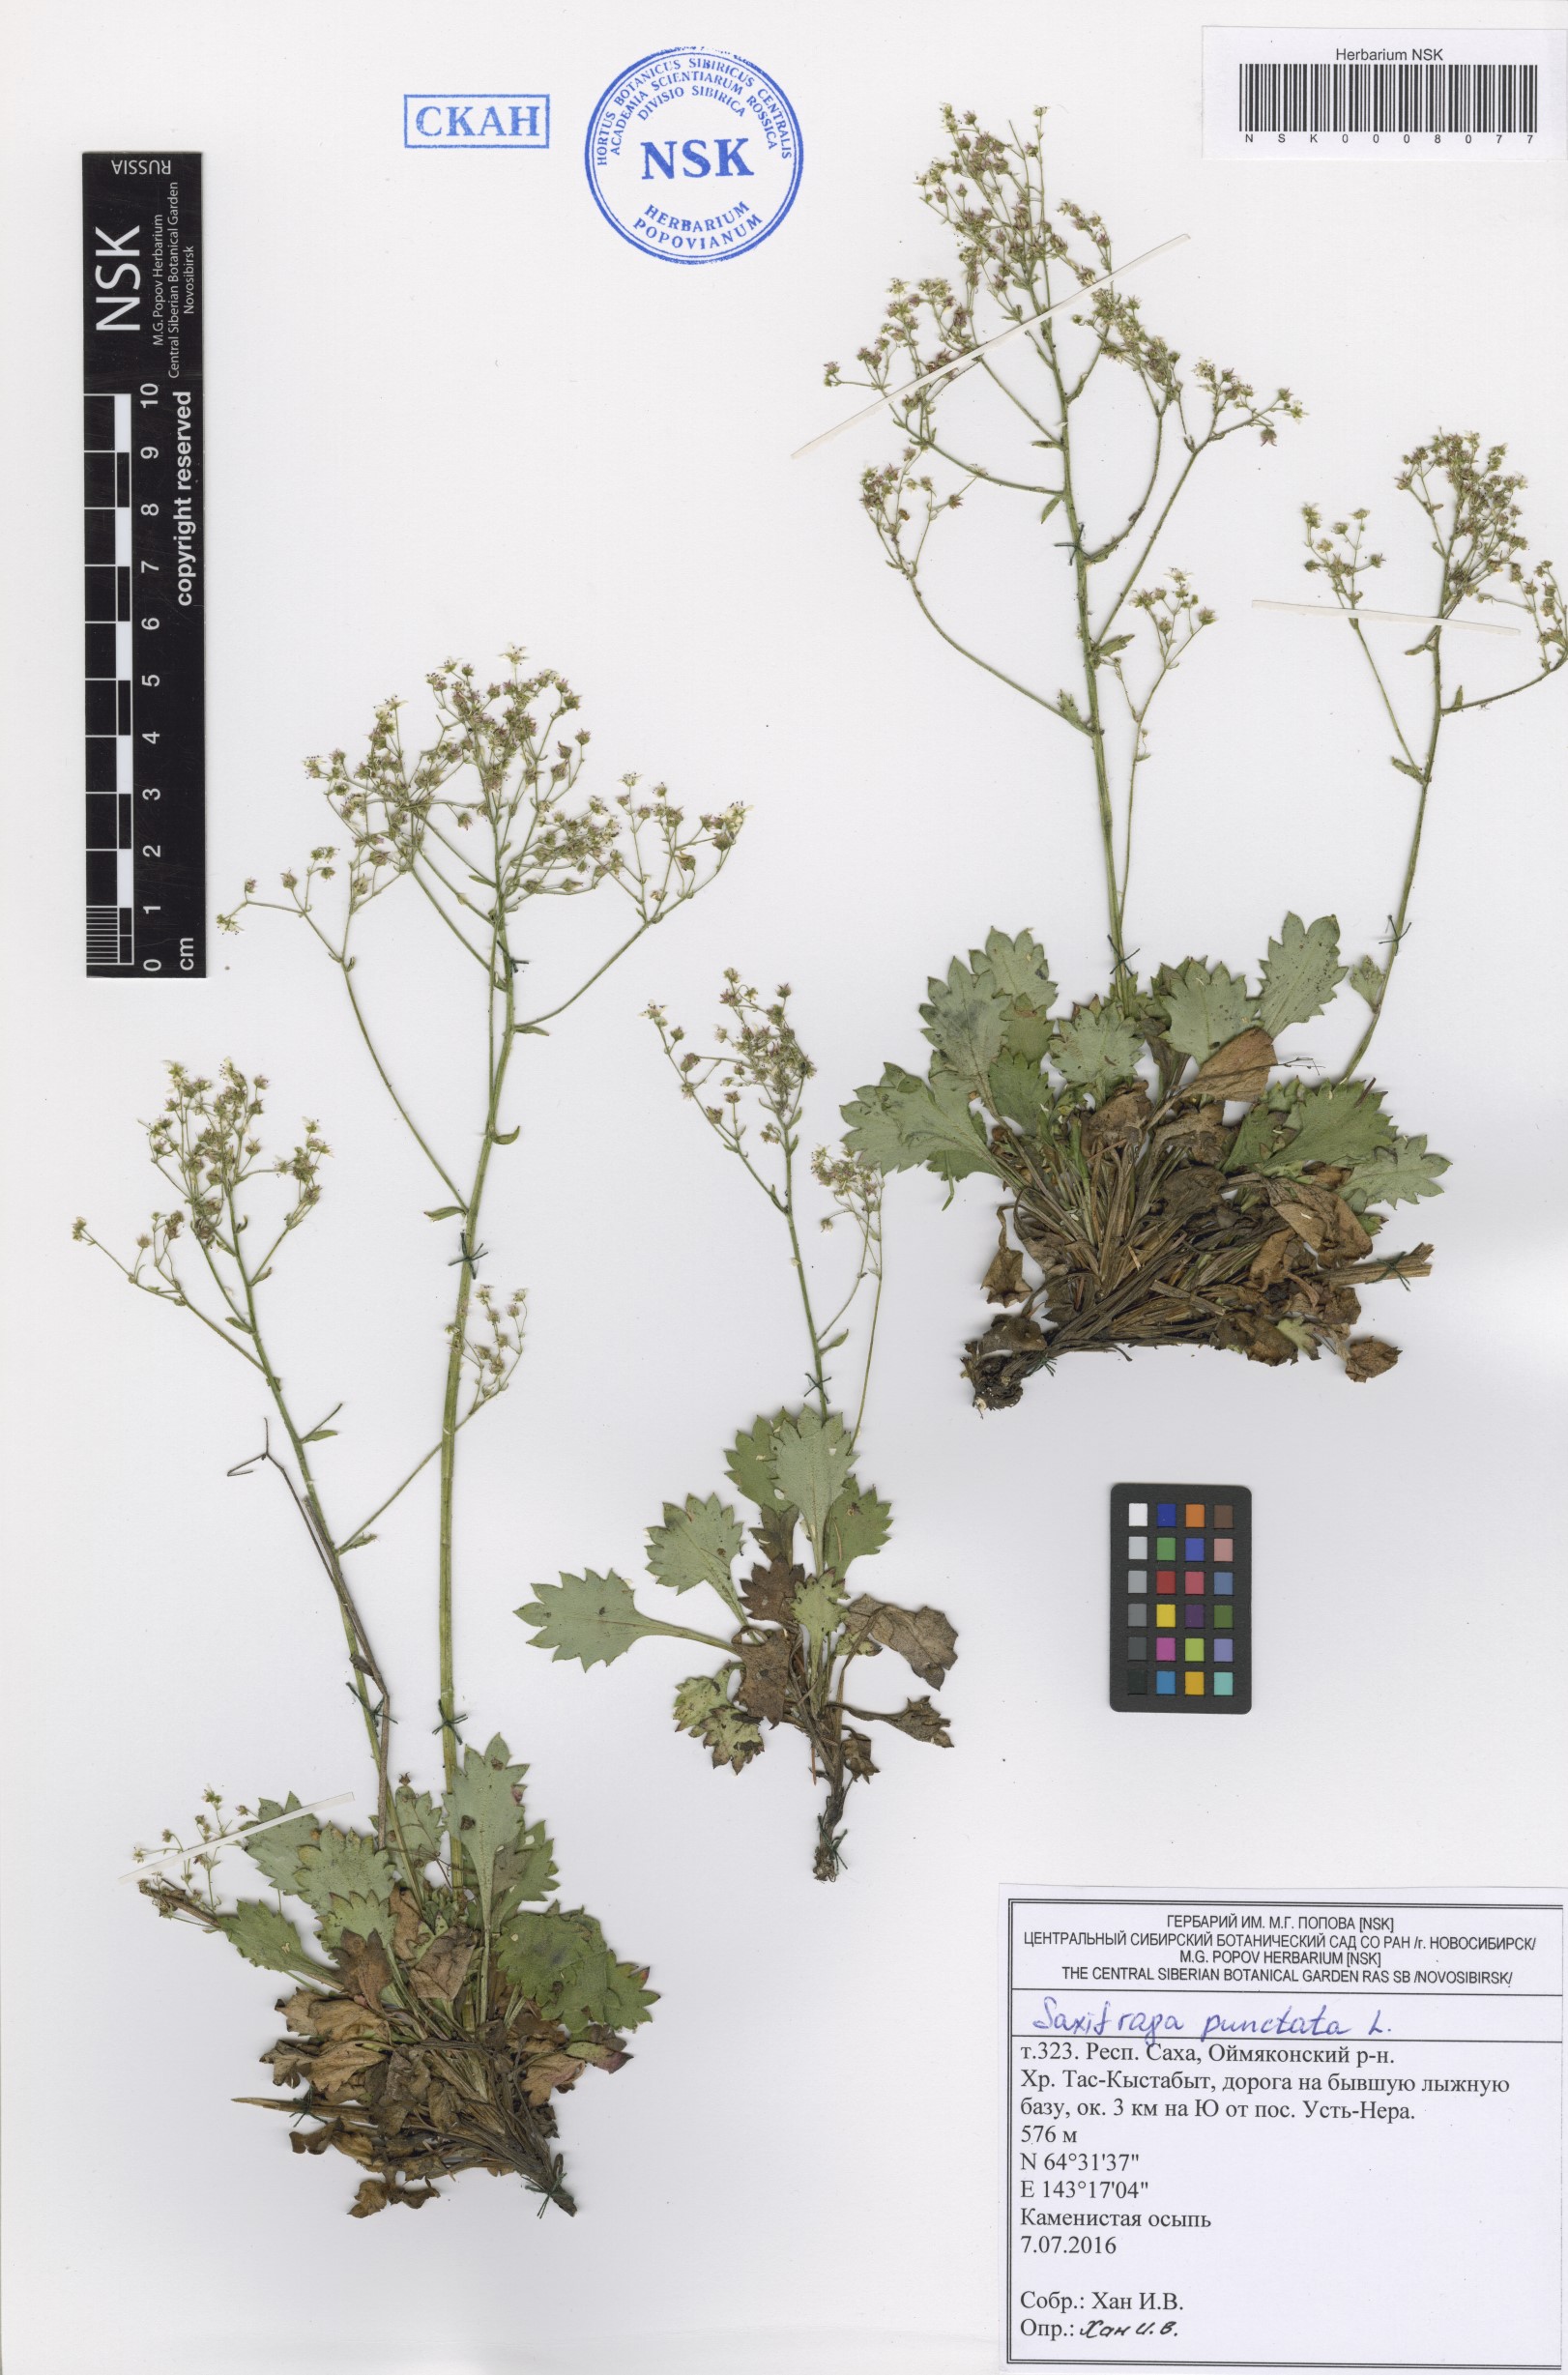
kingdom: Plantae
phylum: Tracheophyta
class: Magnoliopsida
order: Saxifragales
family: Saxifragaceae
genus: Micranthes
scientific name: Micranthes nivalis
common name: Alpine saxifrage
